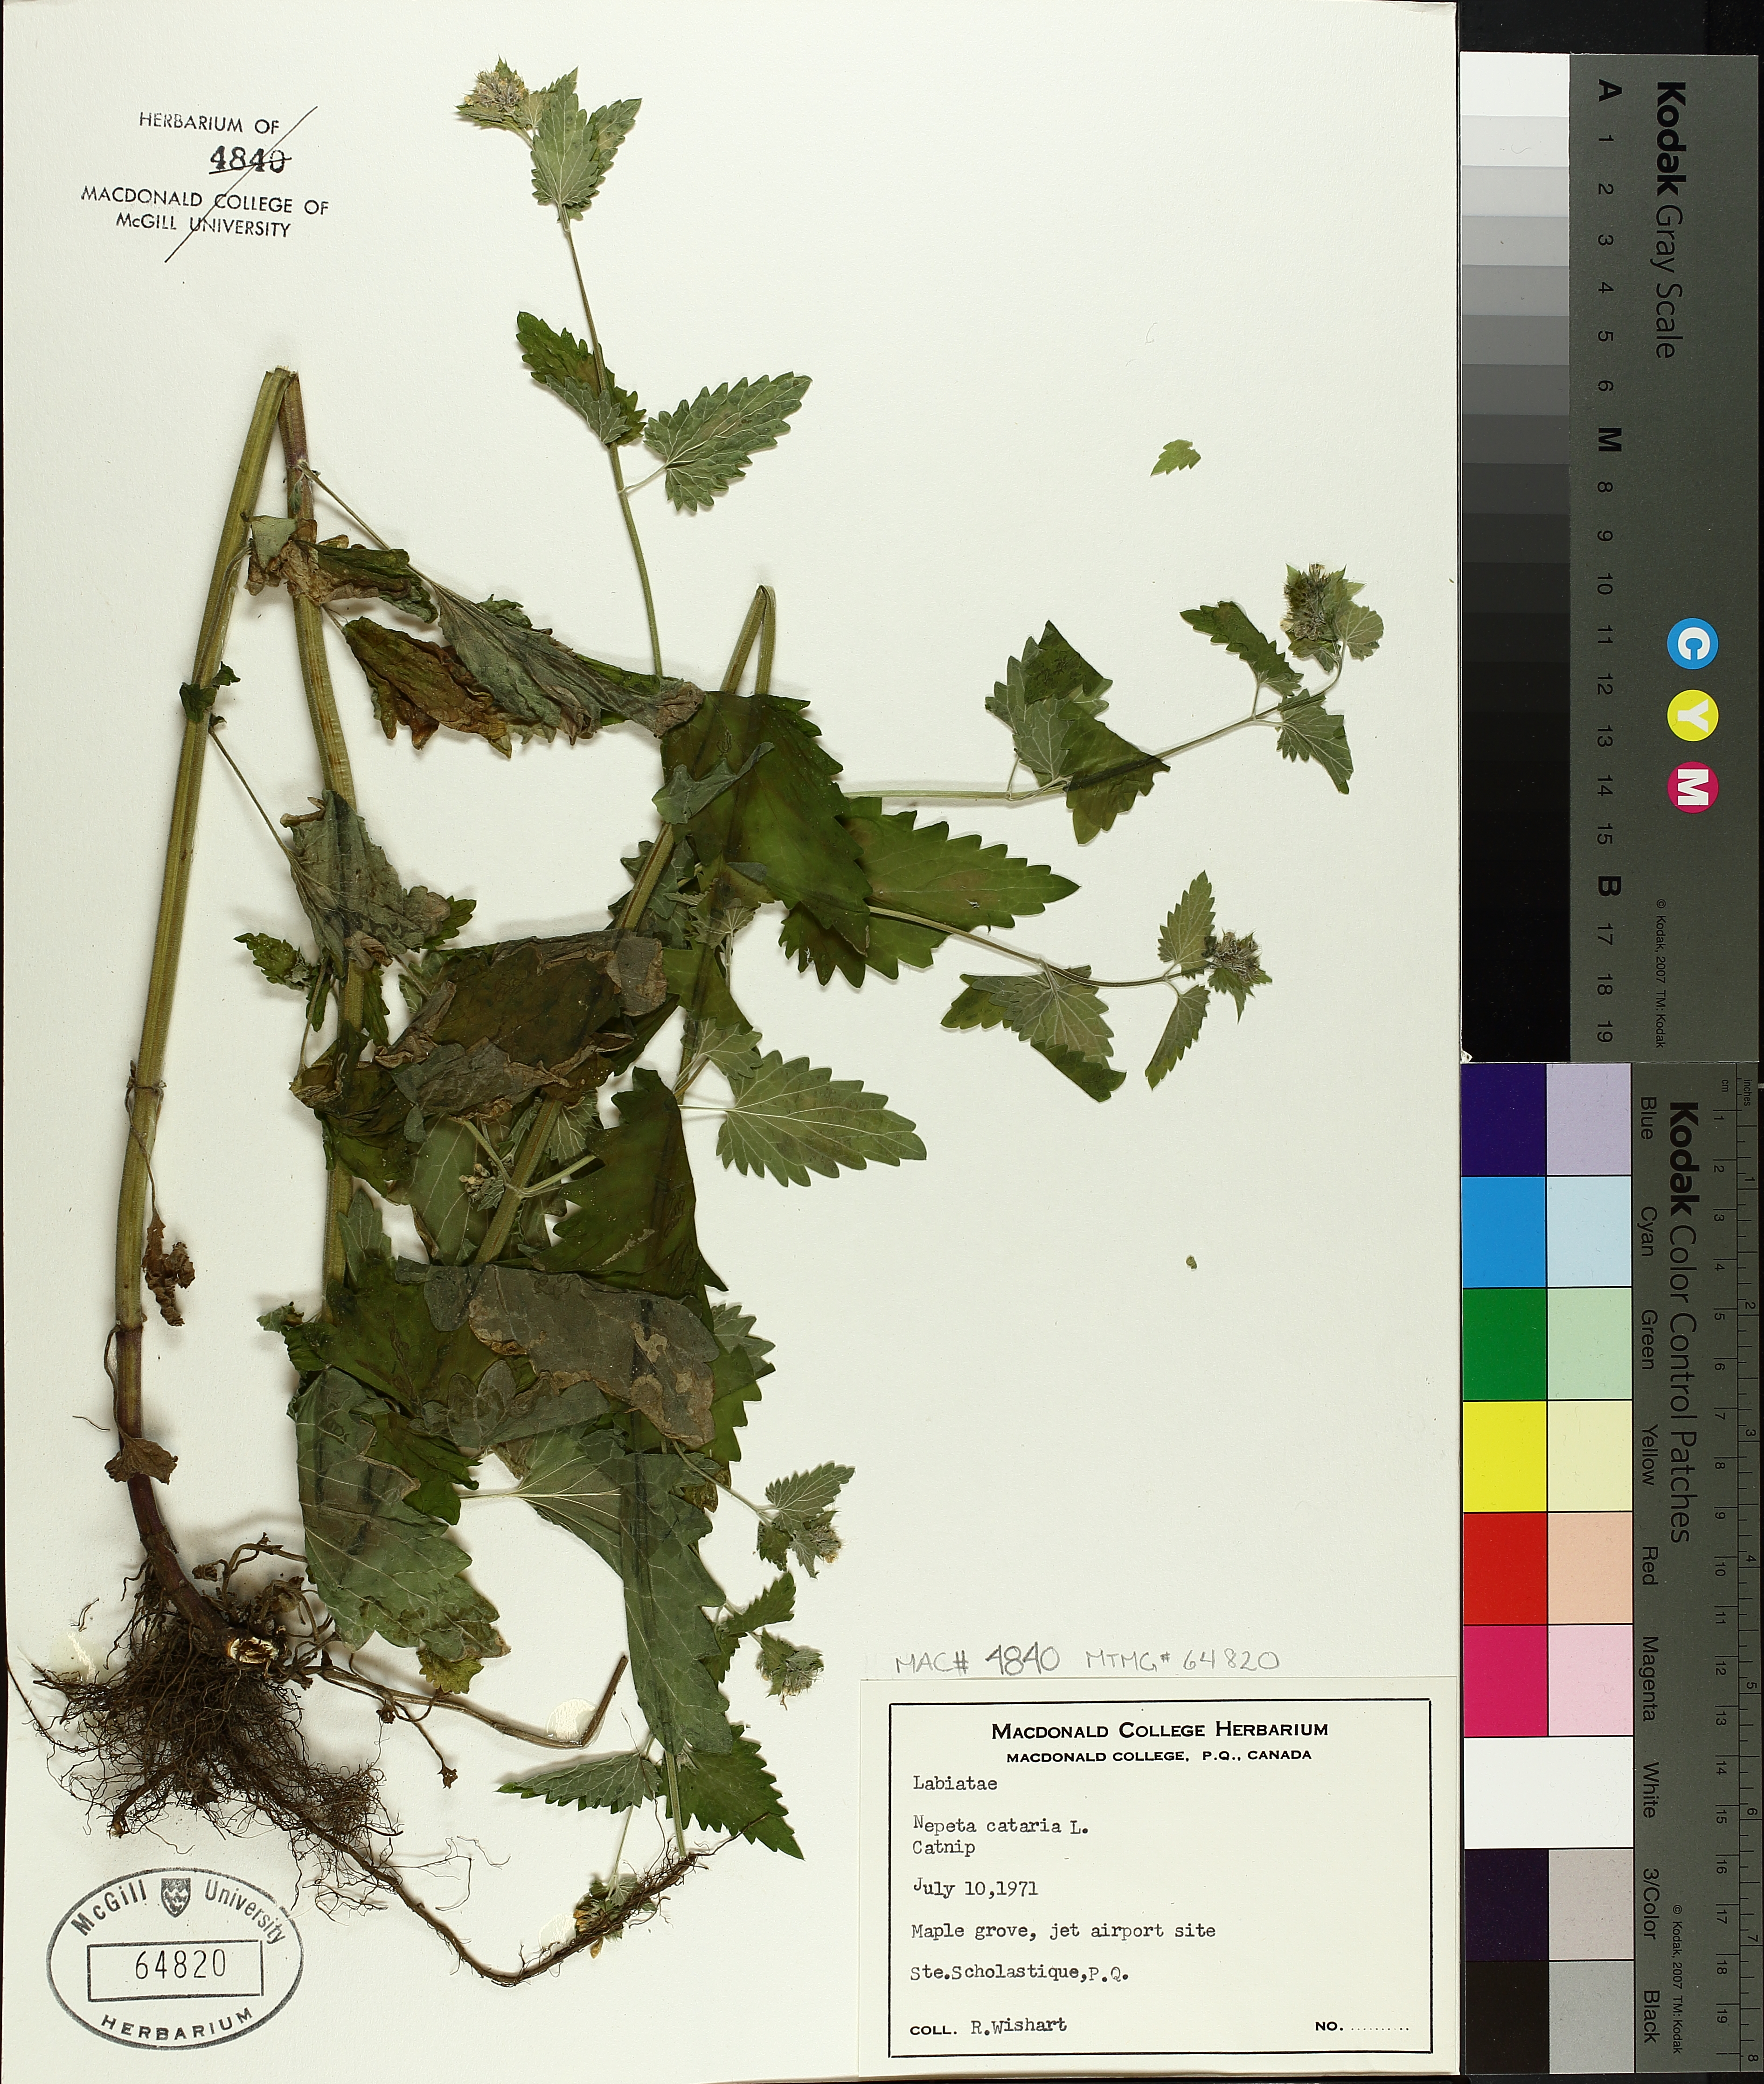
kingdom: Plantae
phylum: Tracheophyta
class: Magnoliopsida
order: Lamiales
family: Lamiaceae
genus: Nepeta
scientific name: Nepeta cataria
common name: Catnip
